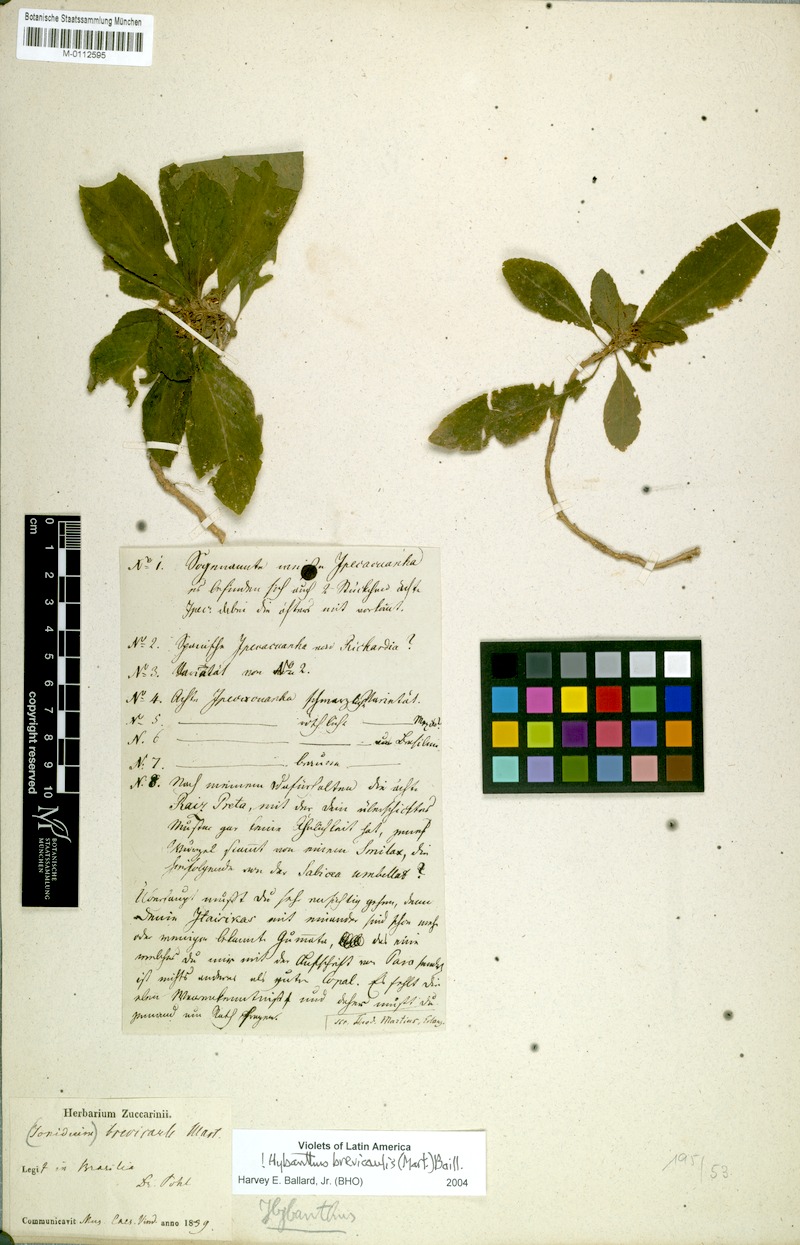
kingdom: Plantae
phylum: Tracheophyta
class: Magnoliopsida
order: Malpighiales
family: Violaceae
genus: Pombalia
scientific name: Pombalia brevicaulis
